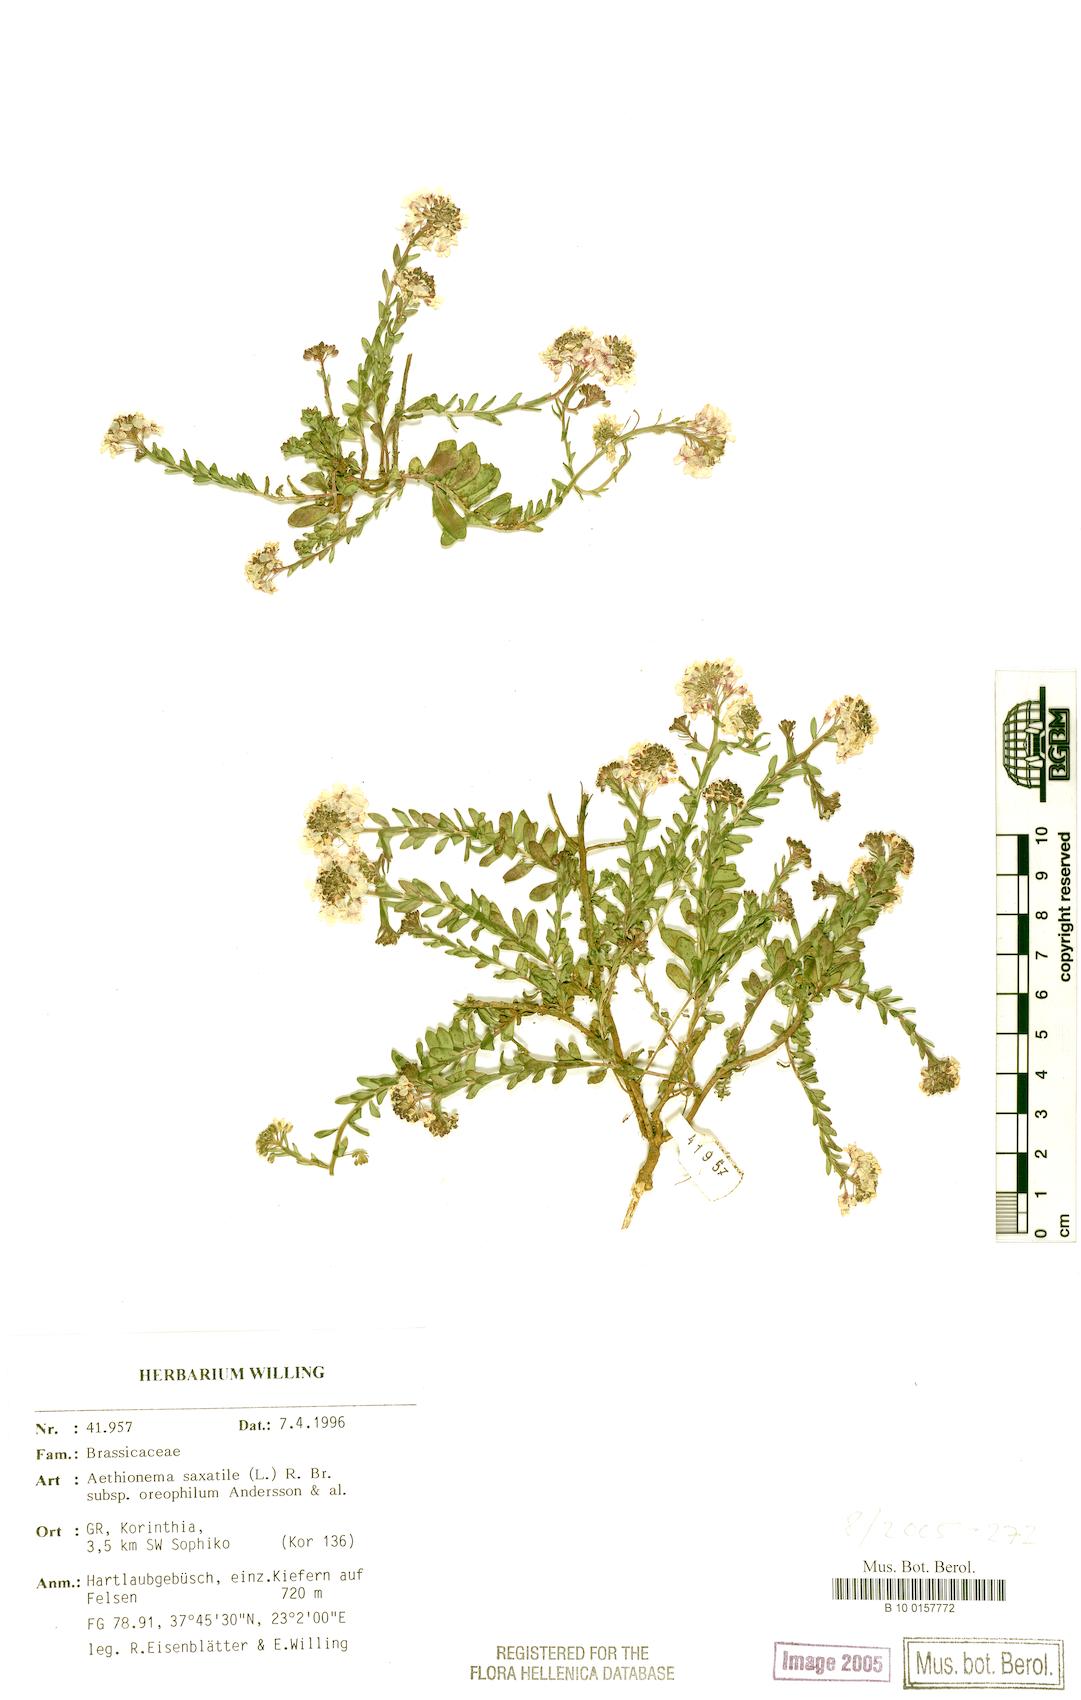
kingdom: Plantae
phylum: Tracheophyta
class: Magnoliopsida
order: Brassicales
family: Brassicaceae
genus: Aethionema
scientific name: Aethionema saxatile
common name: Burnt candytuft
